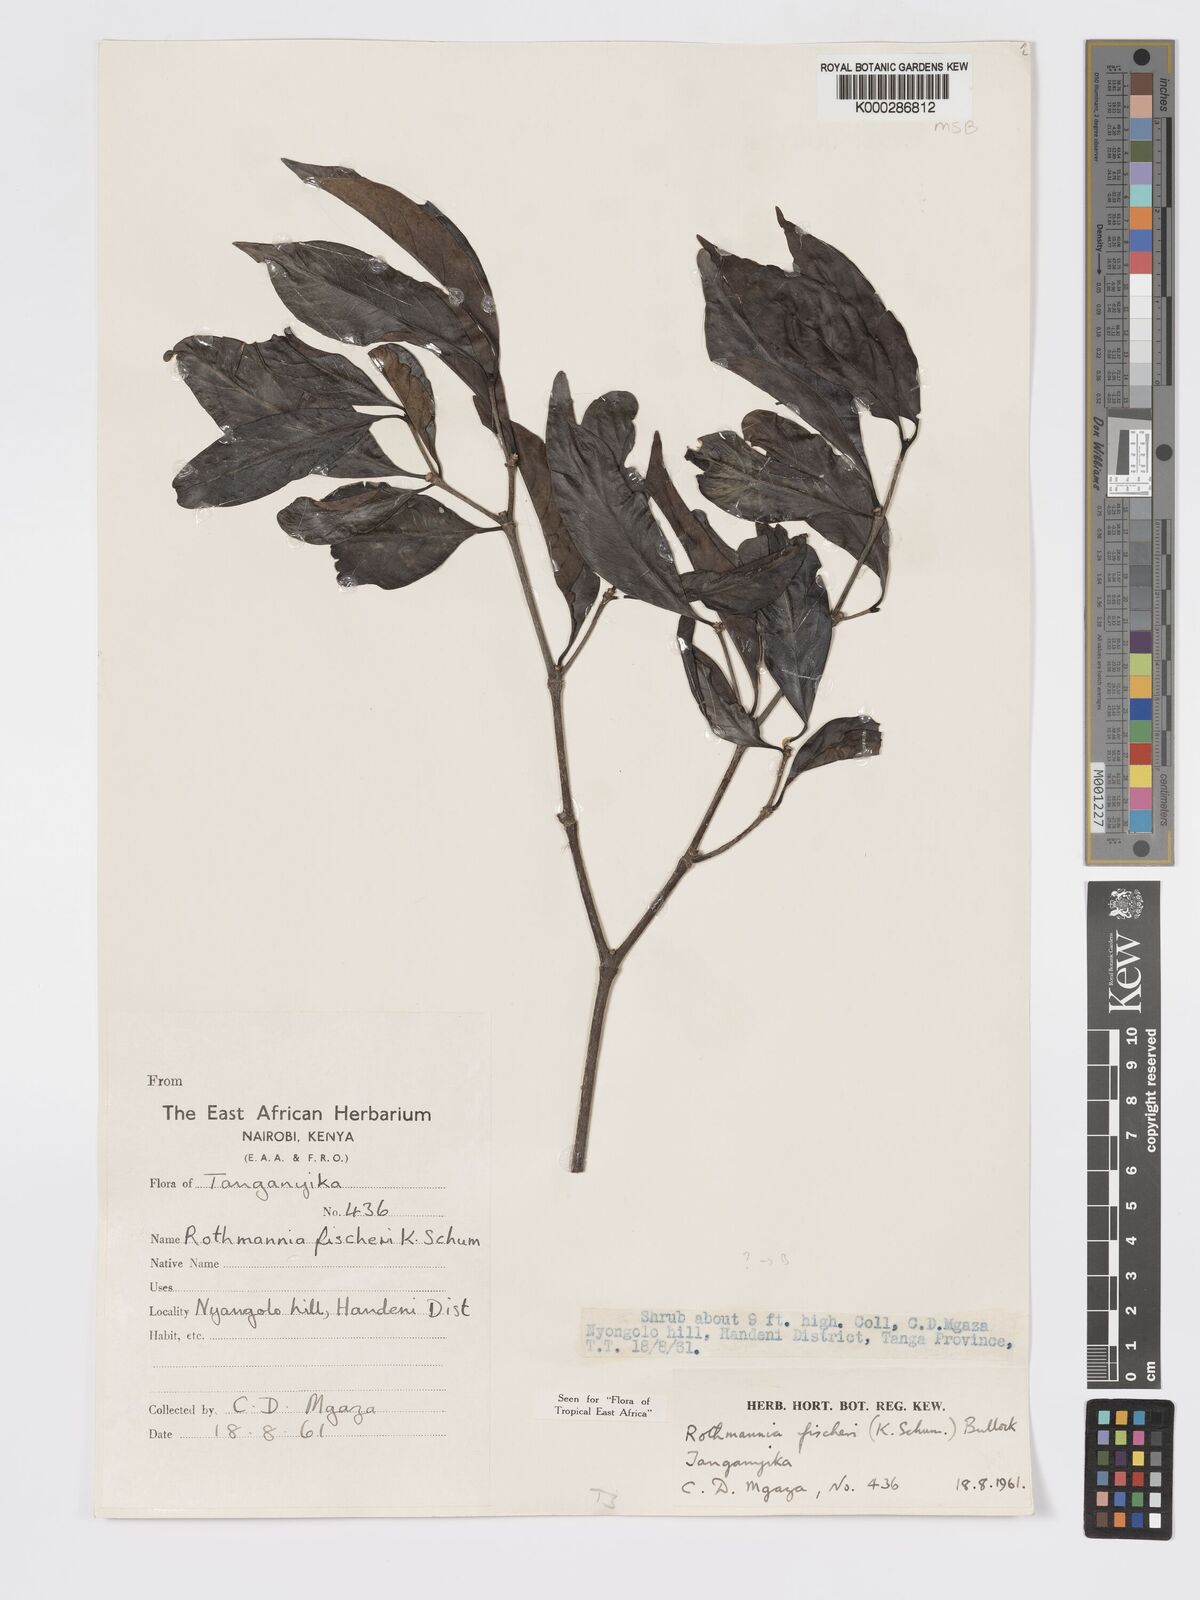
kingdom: Plantae
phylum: Tracheophyta
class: Magnoliopsida
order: Gentianales
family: Rubiaceae
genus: Rothmannia
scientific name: Rothmannia ravae
